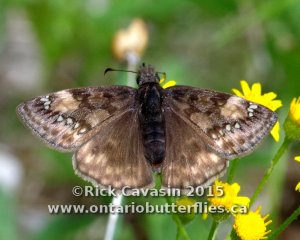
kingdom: Animalia
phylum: Arthropoda
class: Insecta
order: Lepidoptera
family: Hesperiidae
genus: Gesta
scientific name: Gesta
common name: Juvenal's Duskywing
